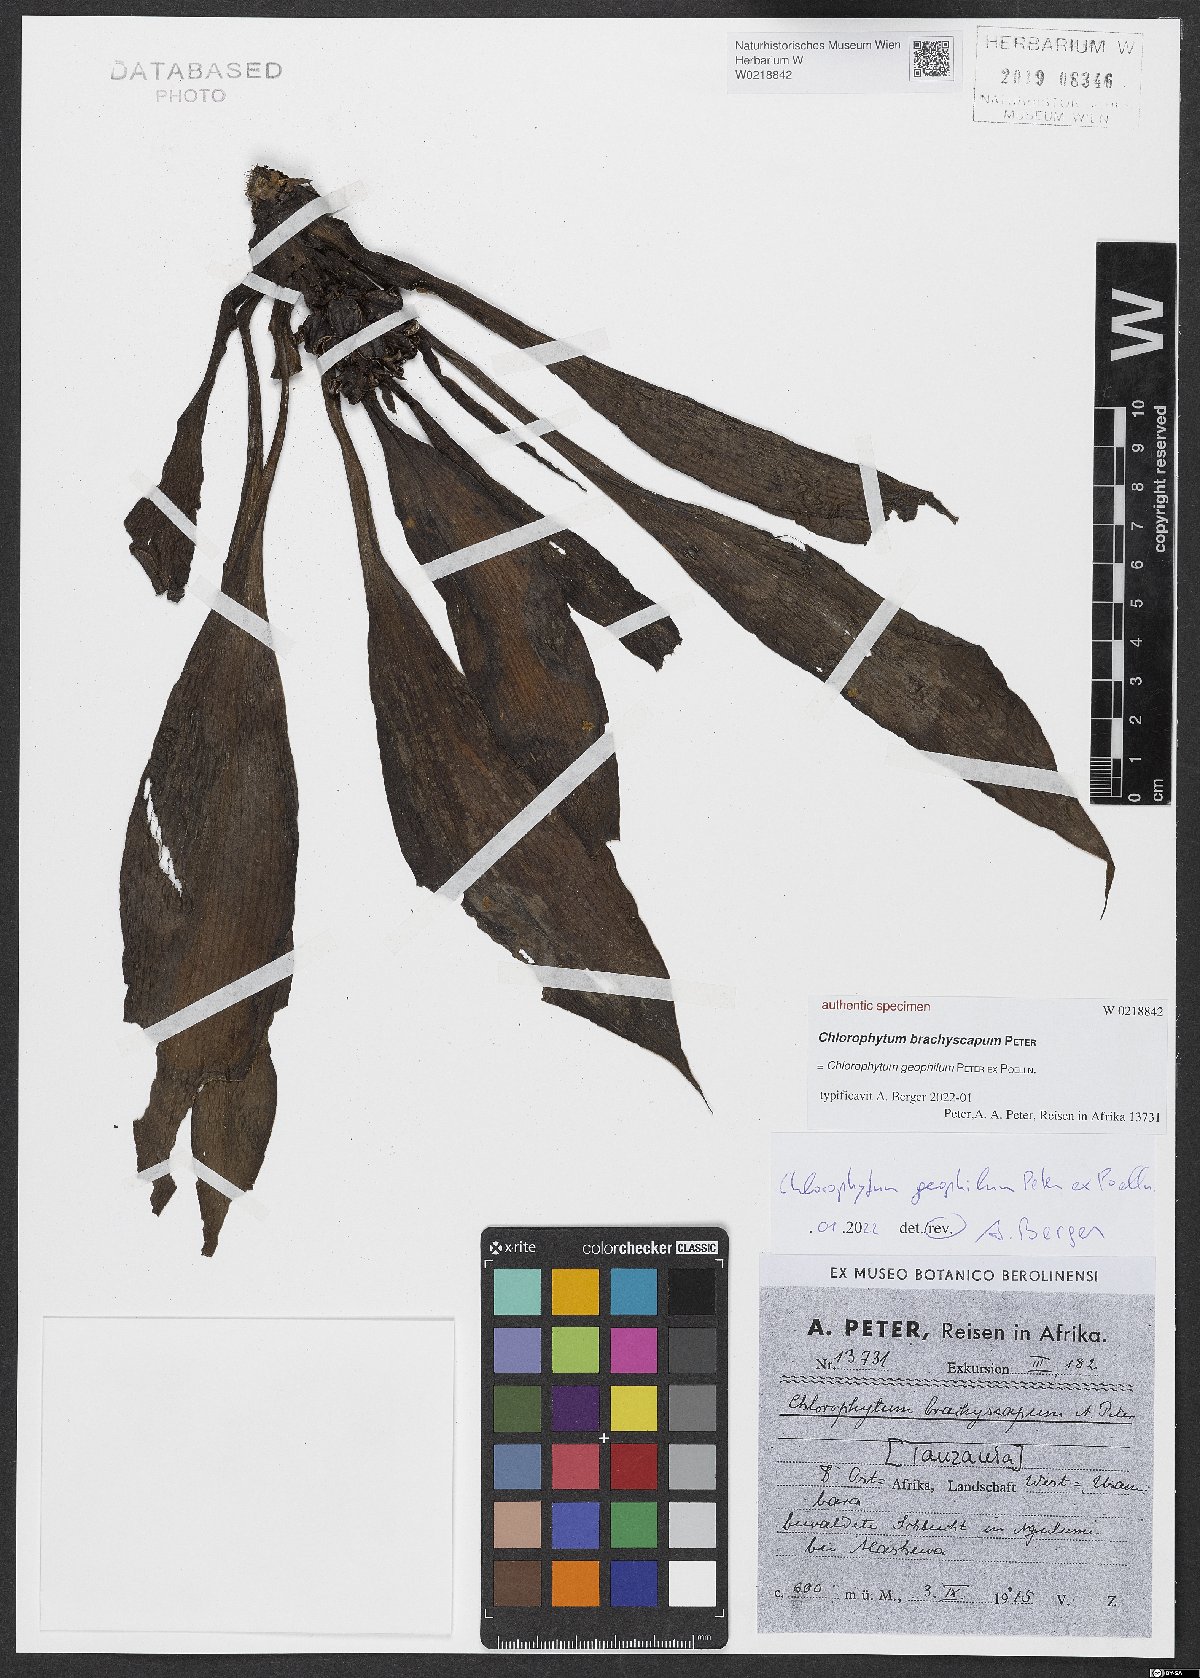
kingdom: Plantae
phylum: Tracheophyta
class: Liliopsida
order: Asparagales
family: Asparagaceae
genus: Chlorophytum
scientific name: Chlorophytum
